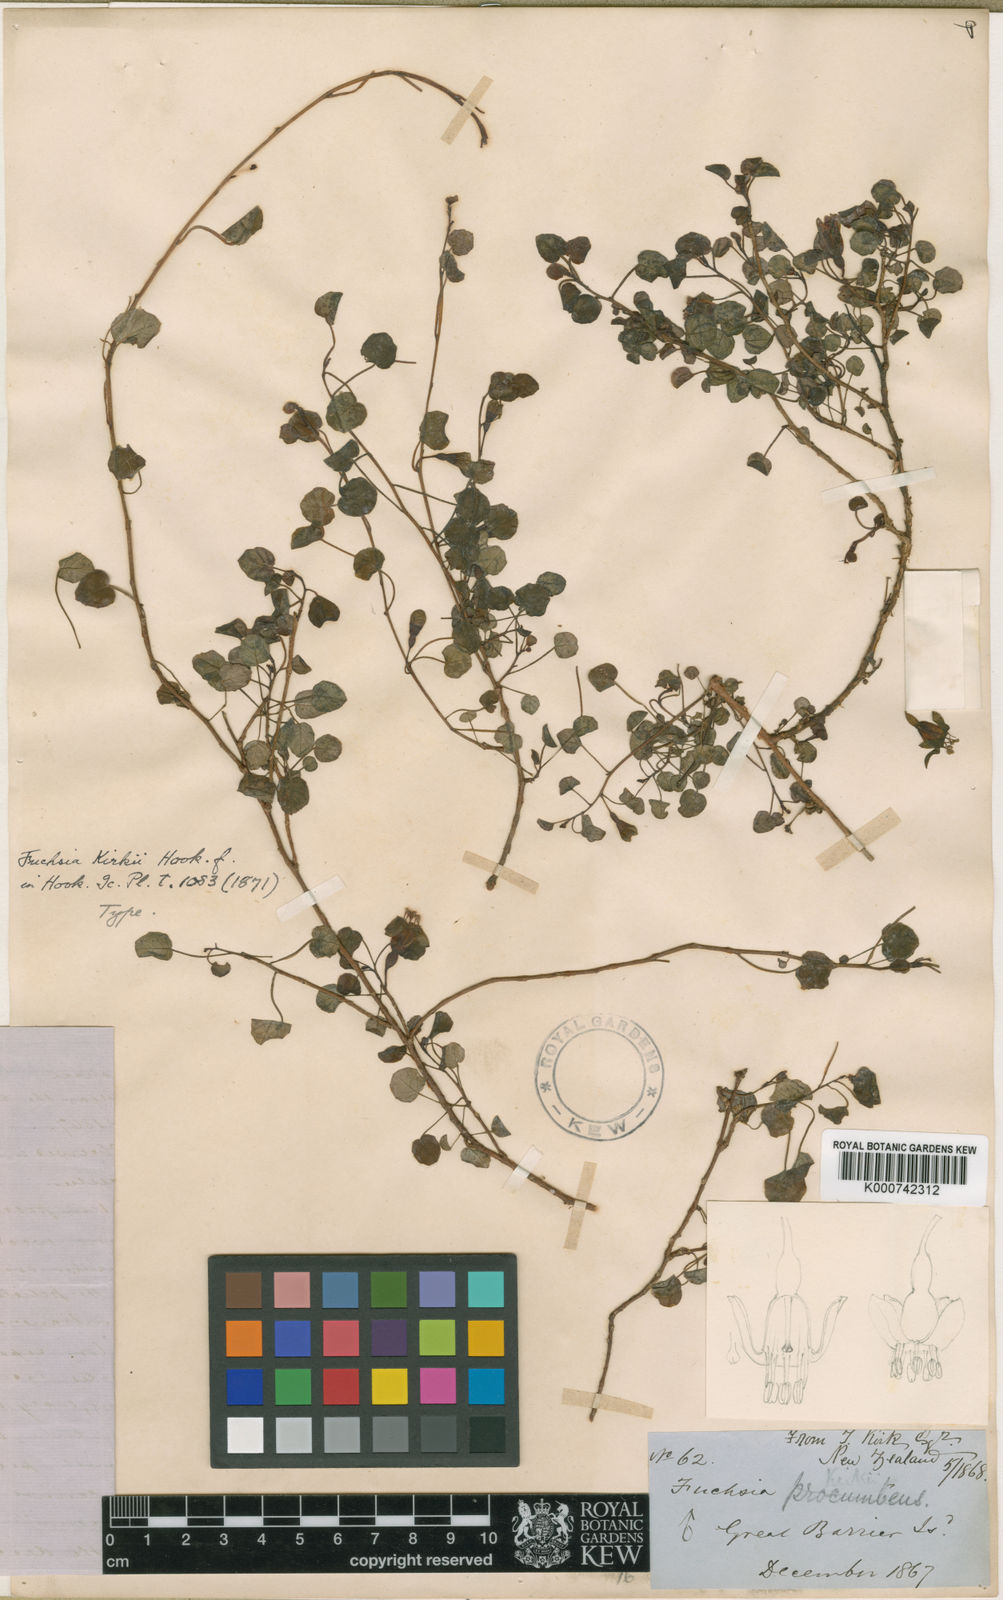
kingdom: Plantae
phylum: Tracheophyta
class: Magnoliopsida
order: Myrtales
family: Onagraceae
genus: Fuchsia
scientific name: Fuchsia procumbens
